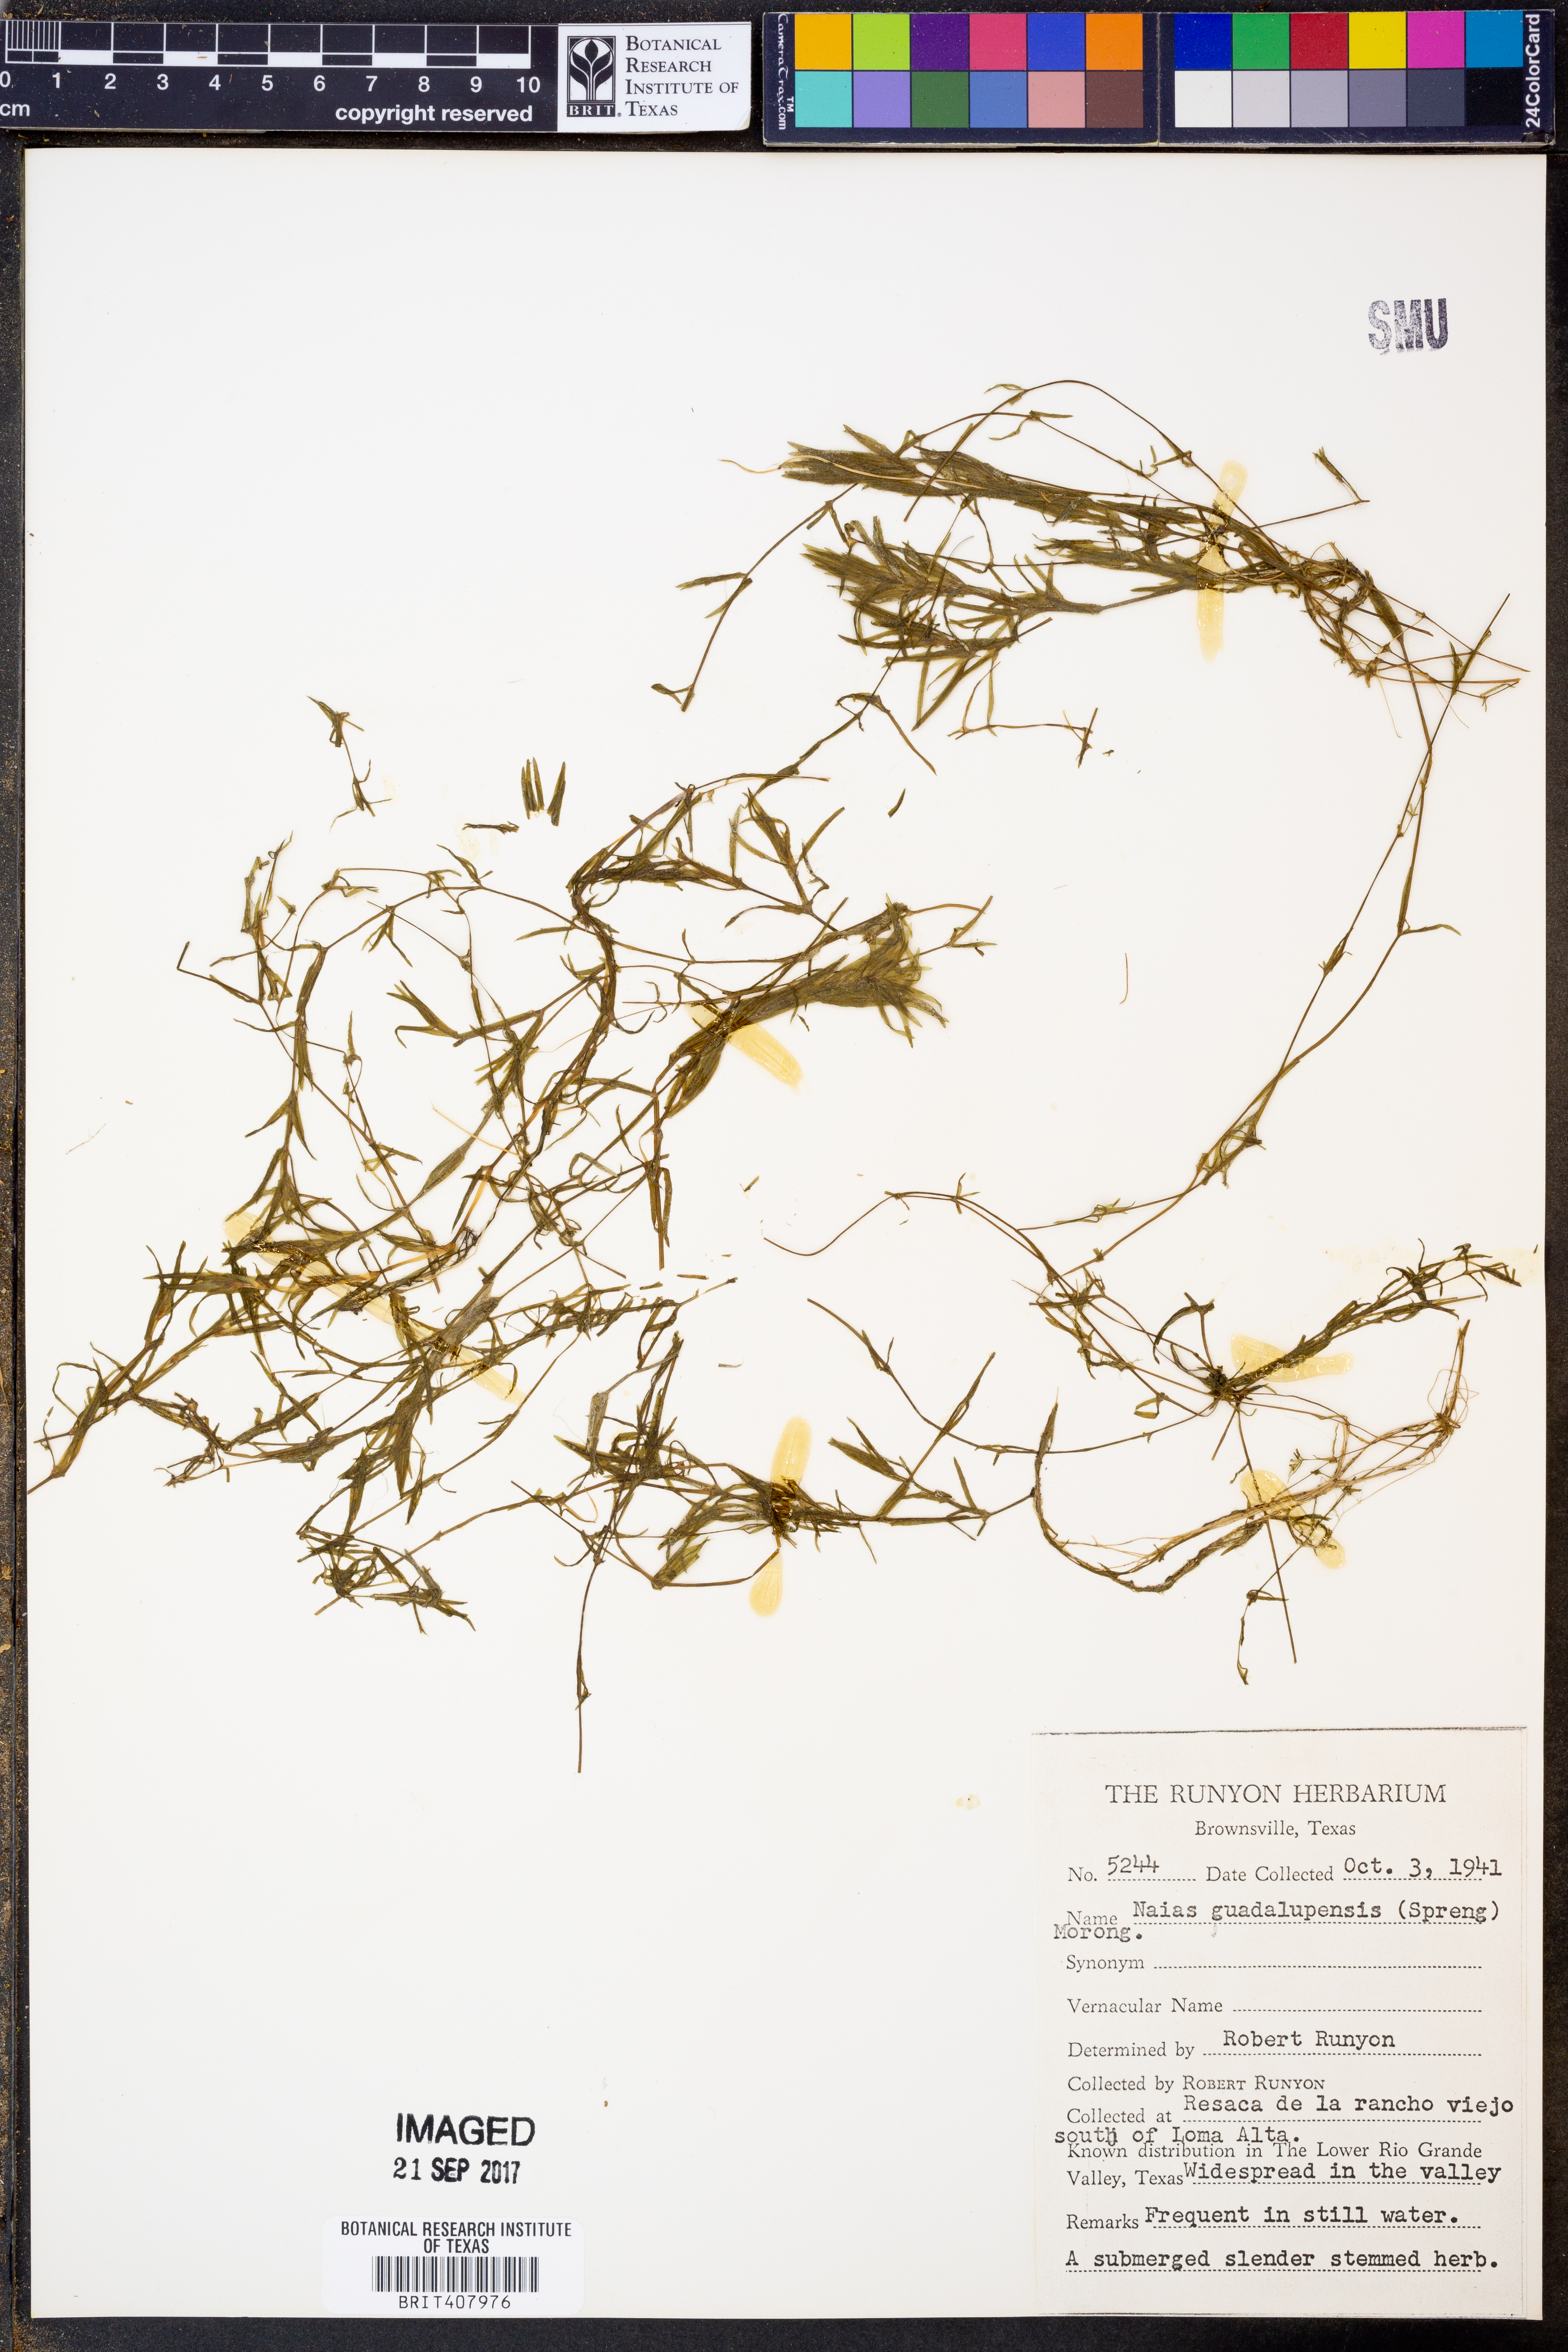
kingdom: Plantae
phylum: Tracheophyta
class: Liliopsida
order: Alismatales
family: Hydrocharitaceae
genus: Najas
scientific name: Najas guadalupensis
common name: Southern naiad
